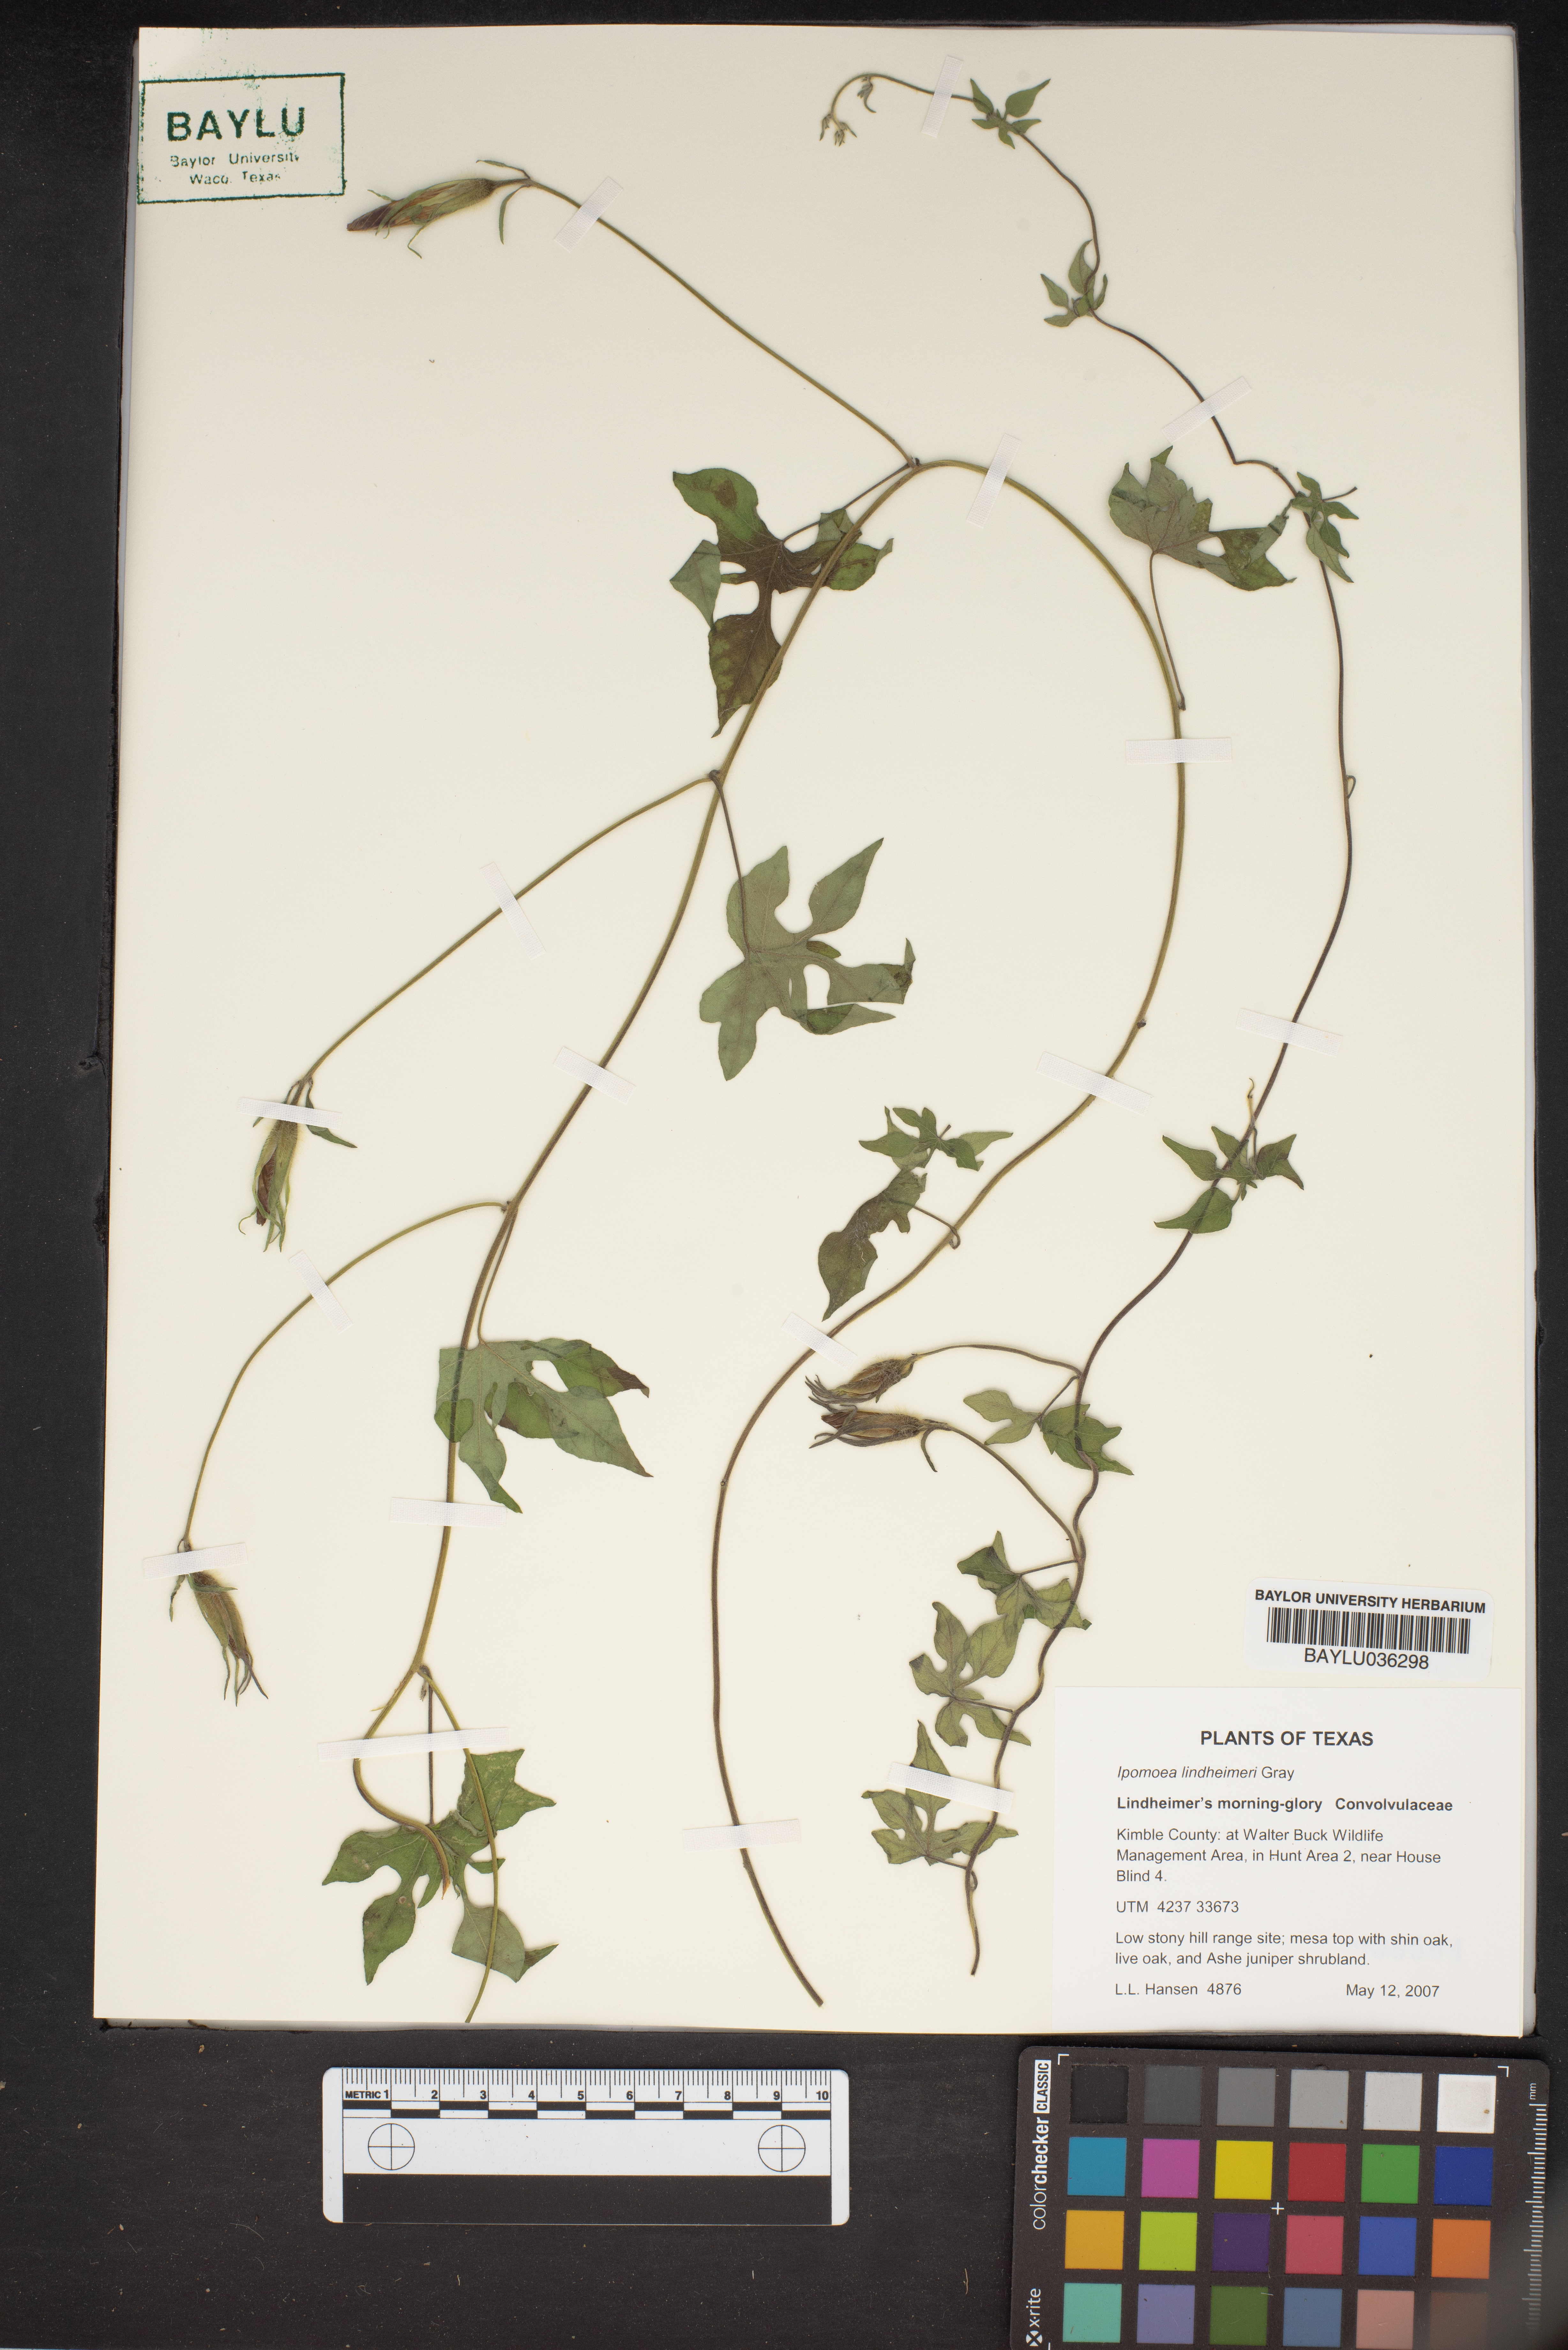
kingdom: Plantae
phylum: Tracheophyta
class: Magnoliopsida
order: Solanales
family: Convolvulaceae
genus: Ipomoea
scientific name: Ipomoea lindheimeri
